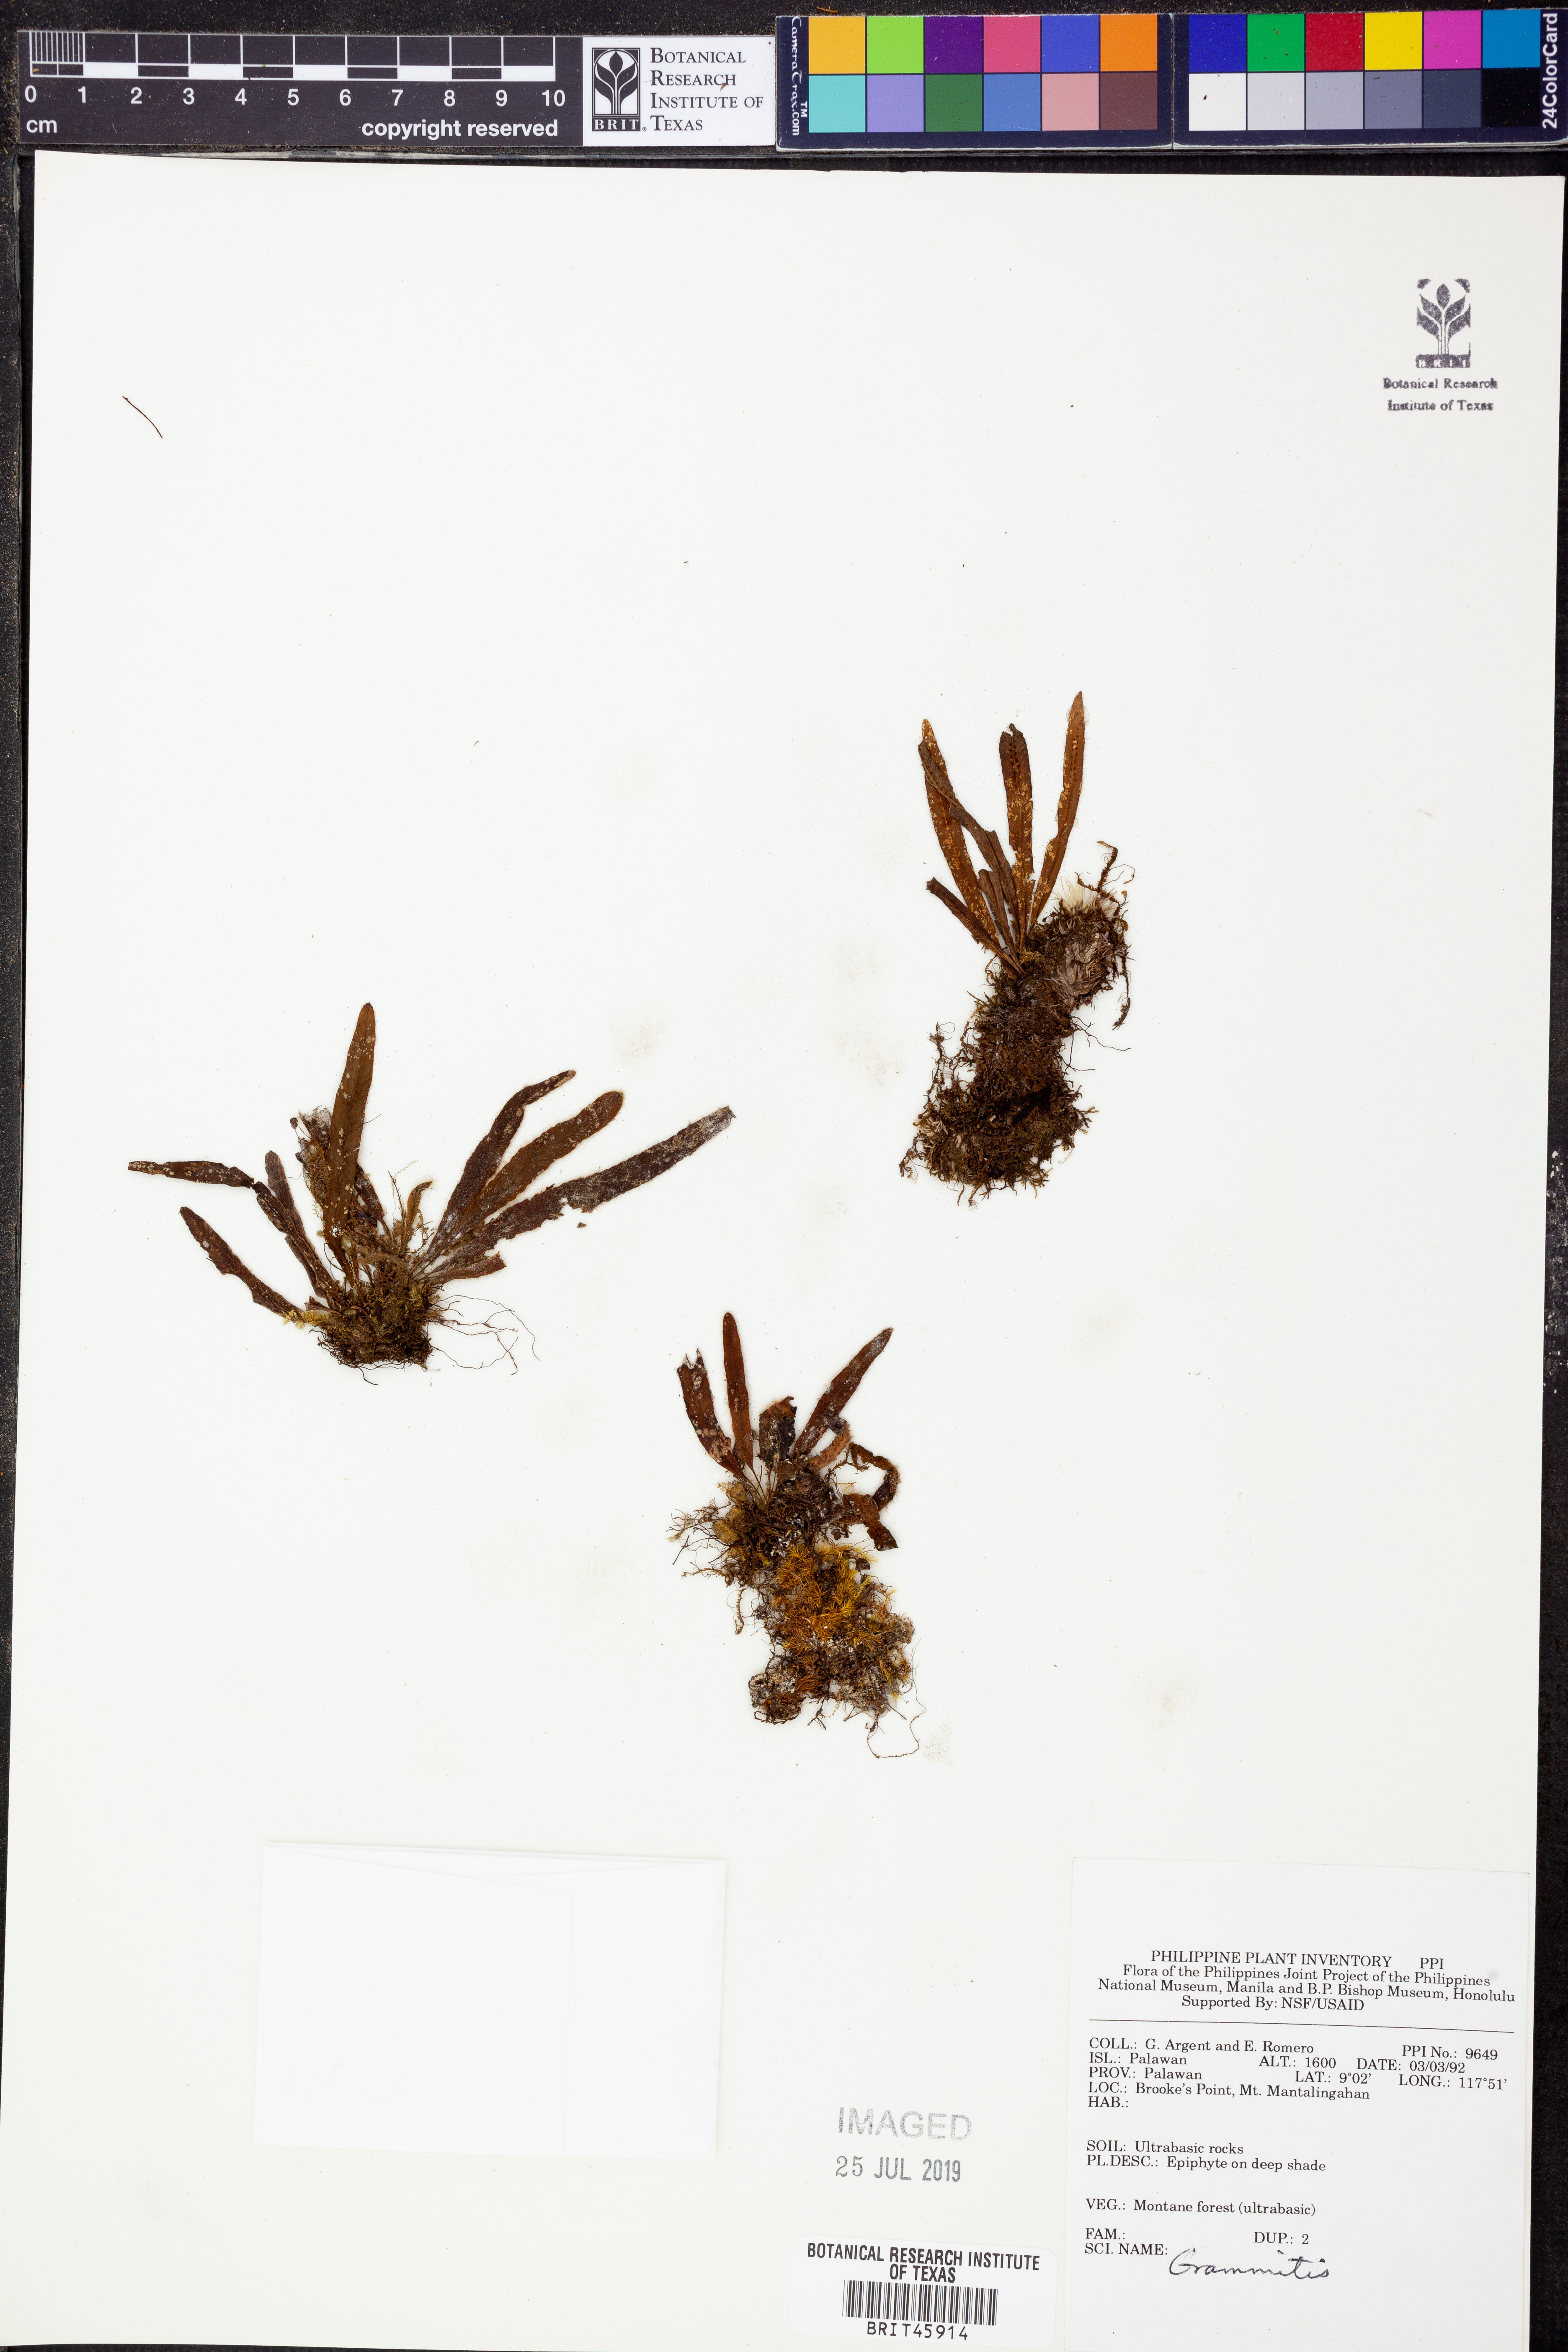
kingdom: Plantae
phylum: Tracheophyta
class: Polypodiopsida
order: Polypodiales
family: Polypodiaceae
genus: Grammitis
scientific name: Grammitis
